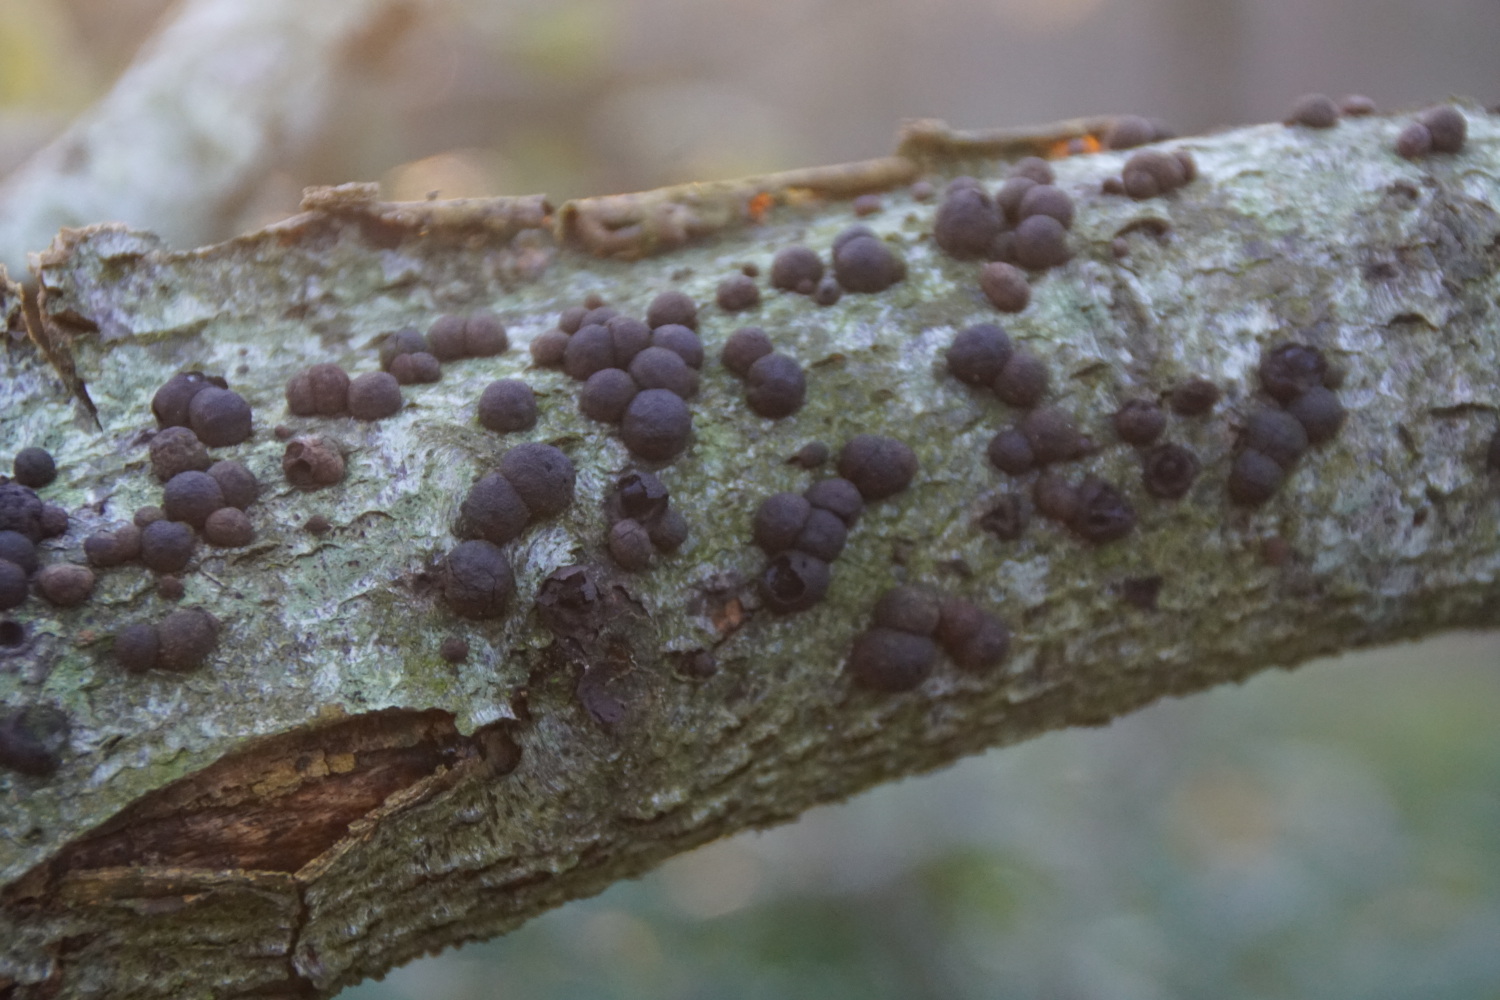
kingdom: Fungi
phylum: Ascomycota
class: Sordariomycetes
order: Xylariales
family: Hypoxylaceae
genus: Hypoxylon
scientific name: Hypoxylon fragiforme
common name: kuljordbær
